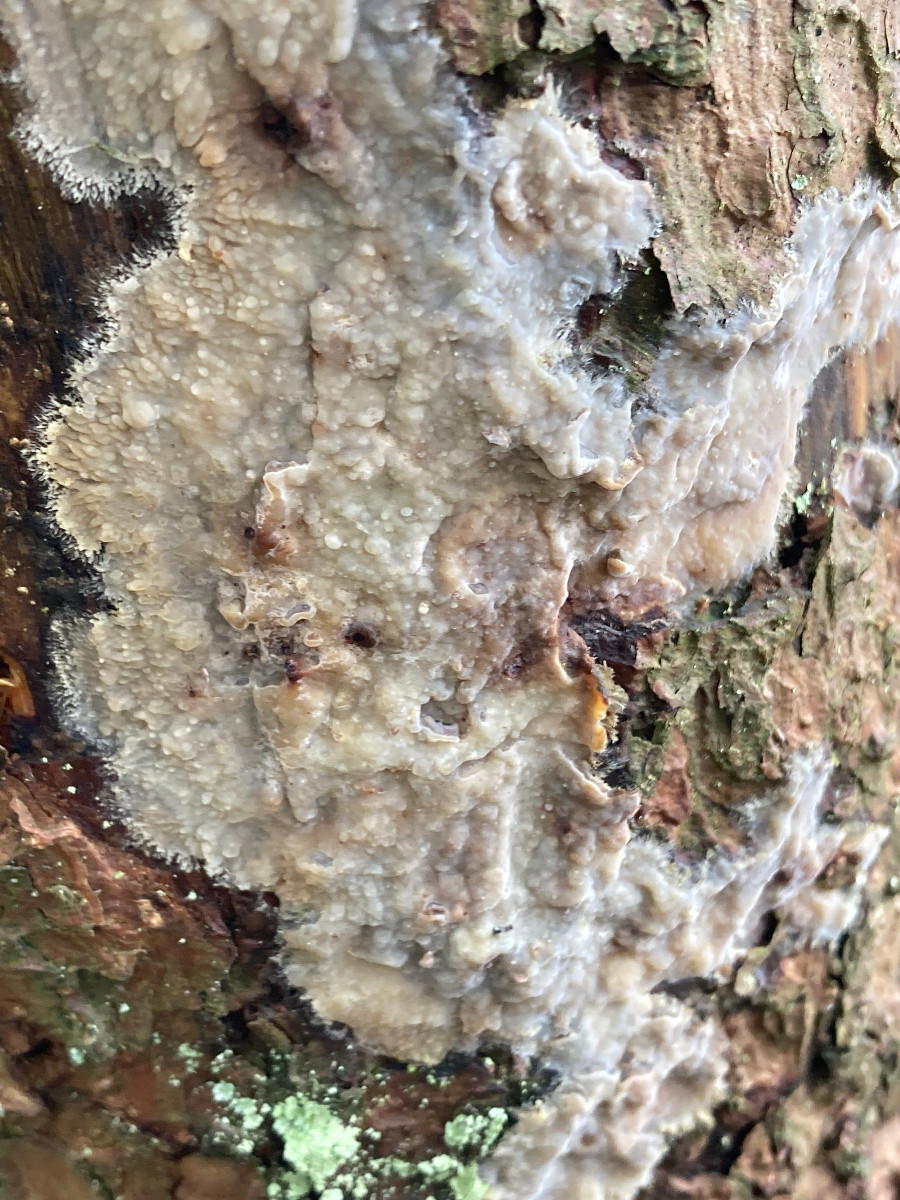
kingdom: Fungi
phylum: Basidiomycota
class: Agaricomycetes
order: Polyporales
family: Phanerochaetaceae
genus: Phlebiopsis
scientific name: Phlebiopsis gigantea
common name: kæmpebarksvamp
